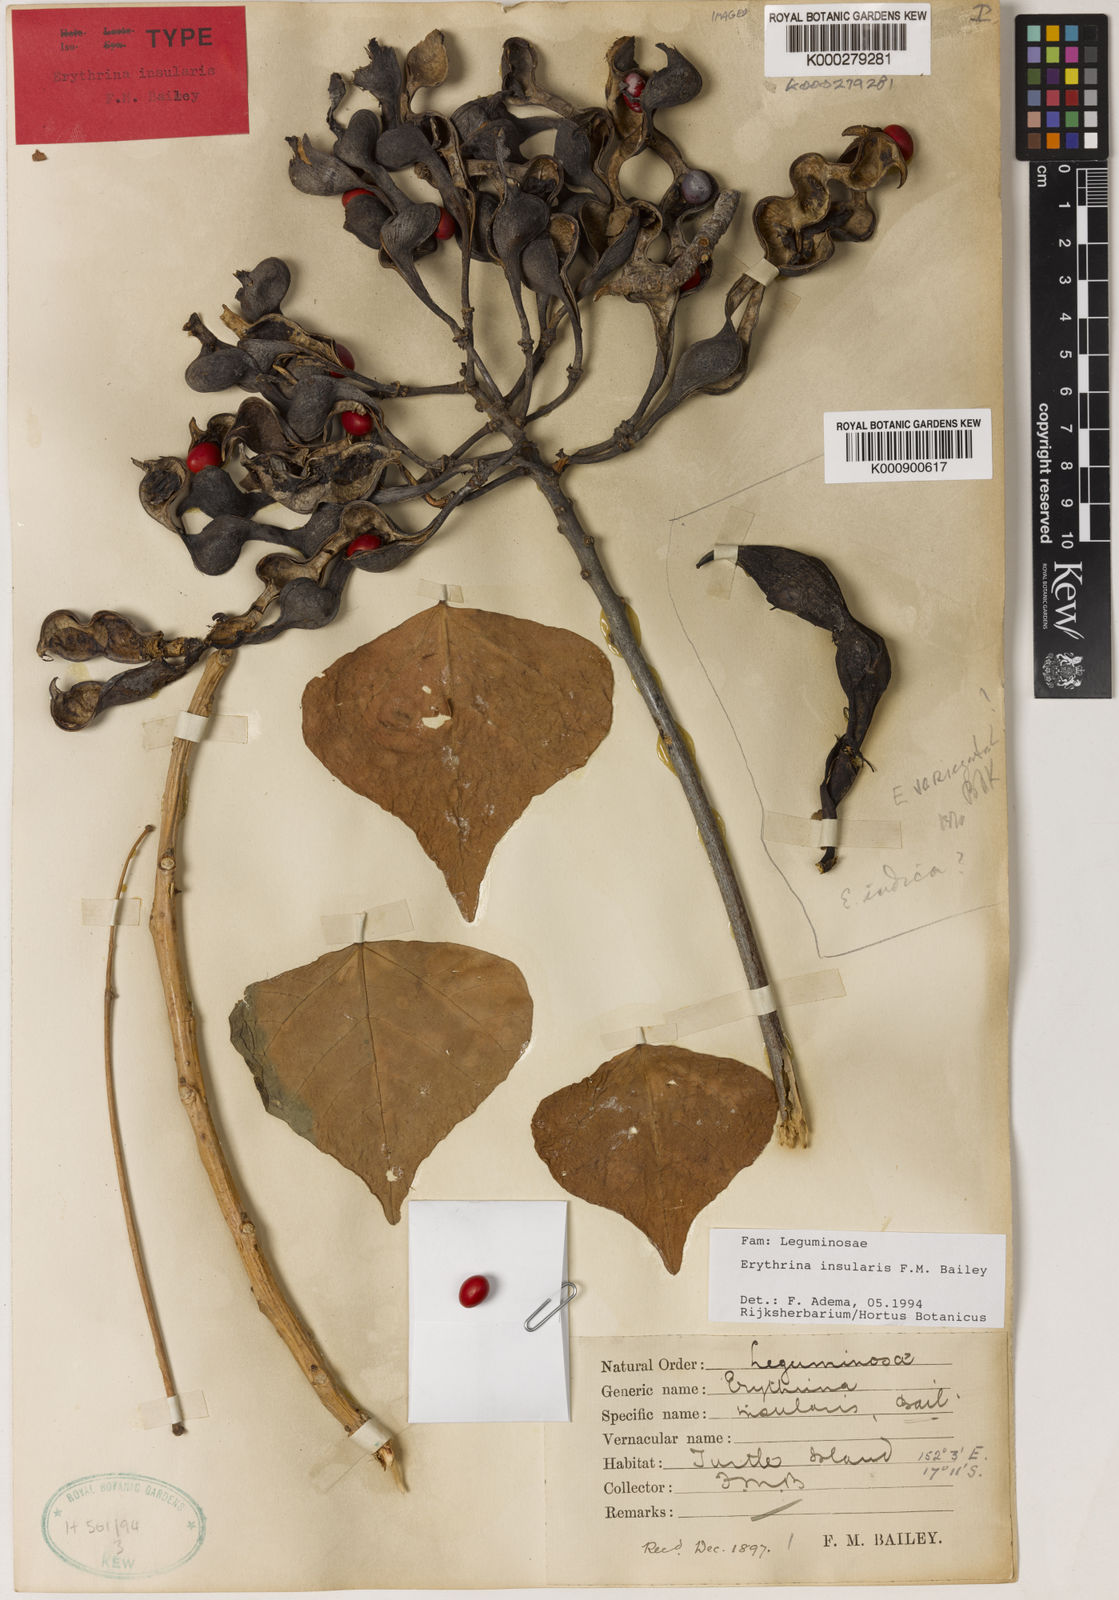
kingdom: Plantae
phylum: Tracheophyta
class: Magnoliopsida
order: Fabales
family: Fabaceae
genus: Erythrina
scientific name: Erythrina vespertilio
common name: Bat-wing coral tree
